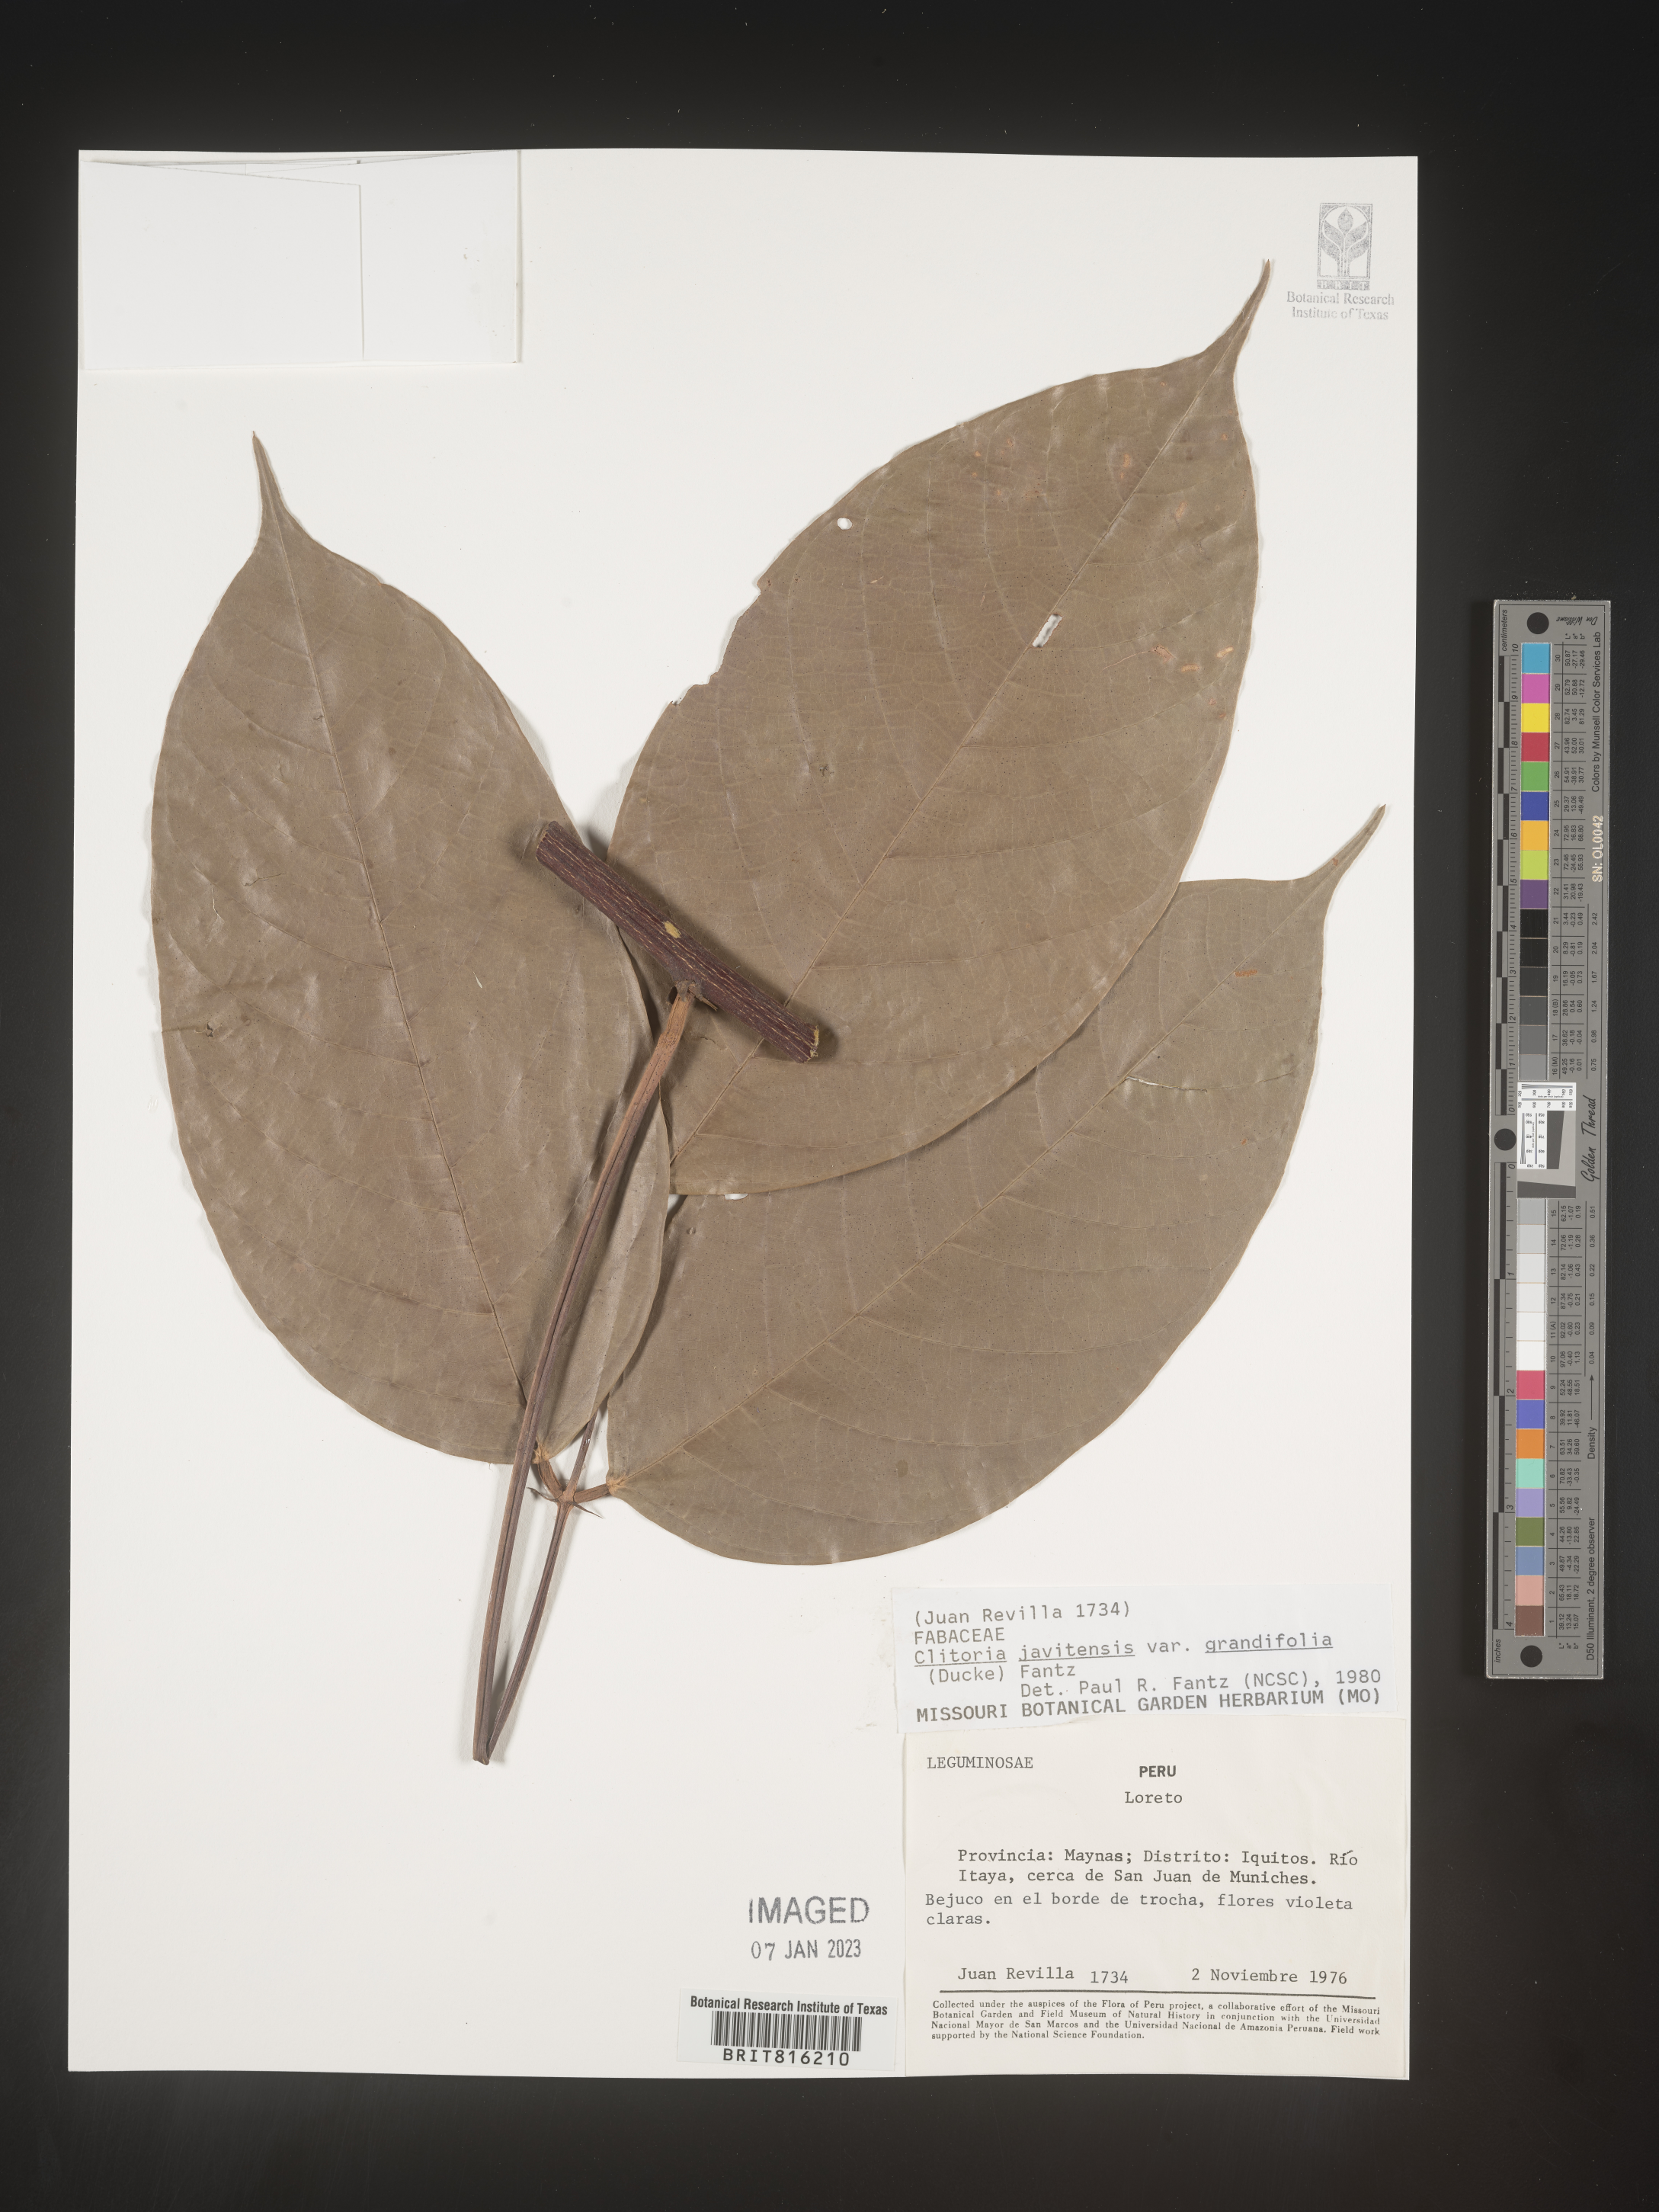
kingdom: Plantae
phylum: Tracheophyta
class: Magnoliopsida
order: Fabales
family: Fabaceae
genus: Clitoria
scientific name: Clitoria
